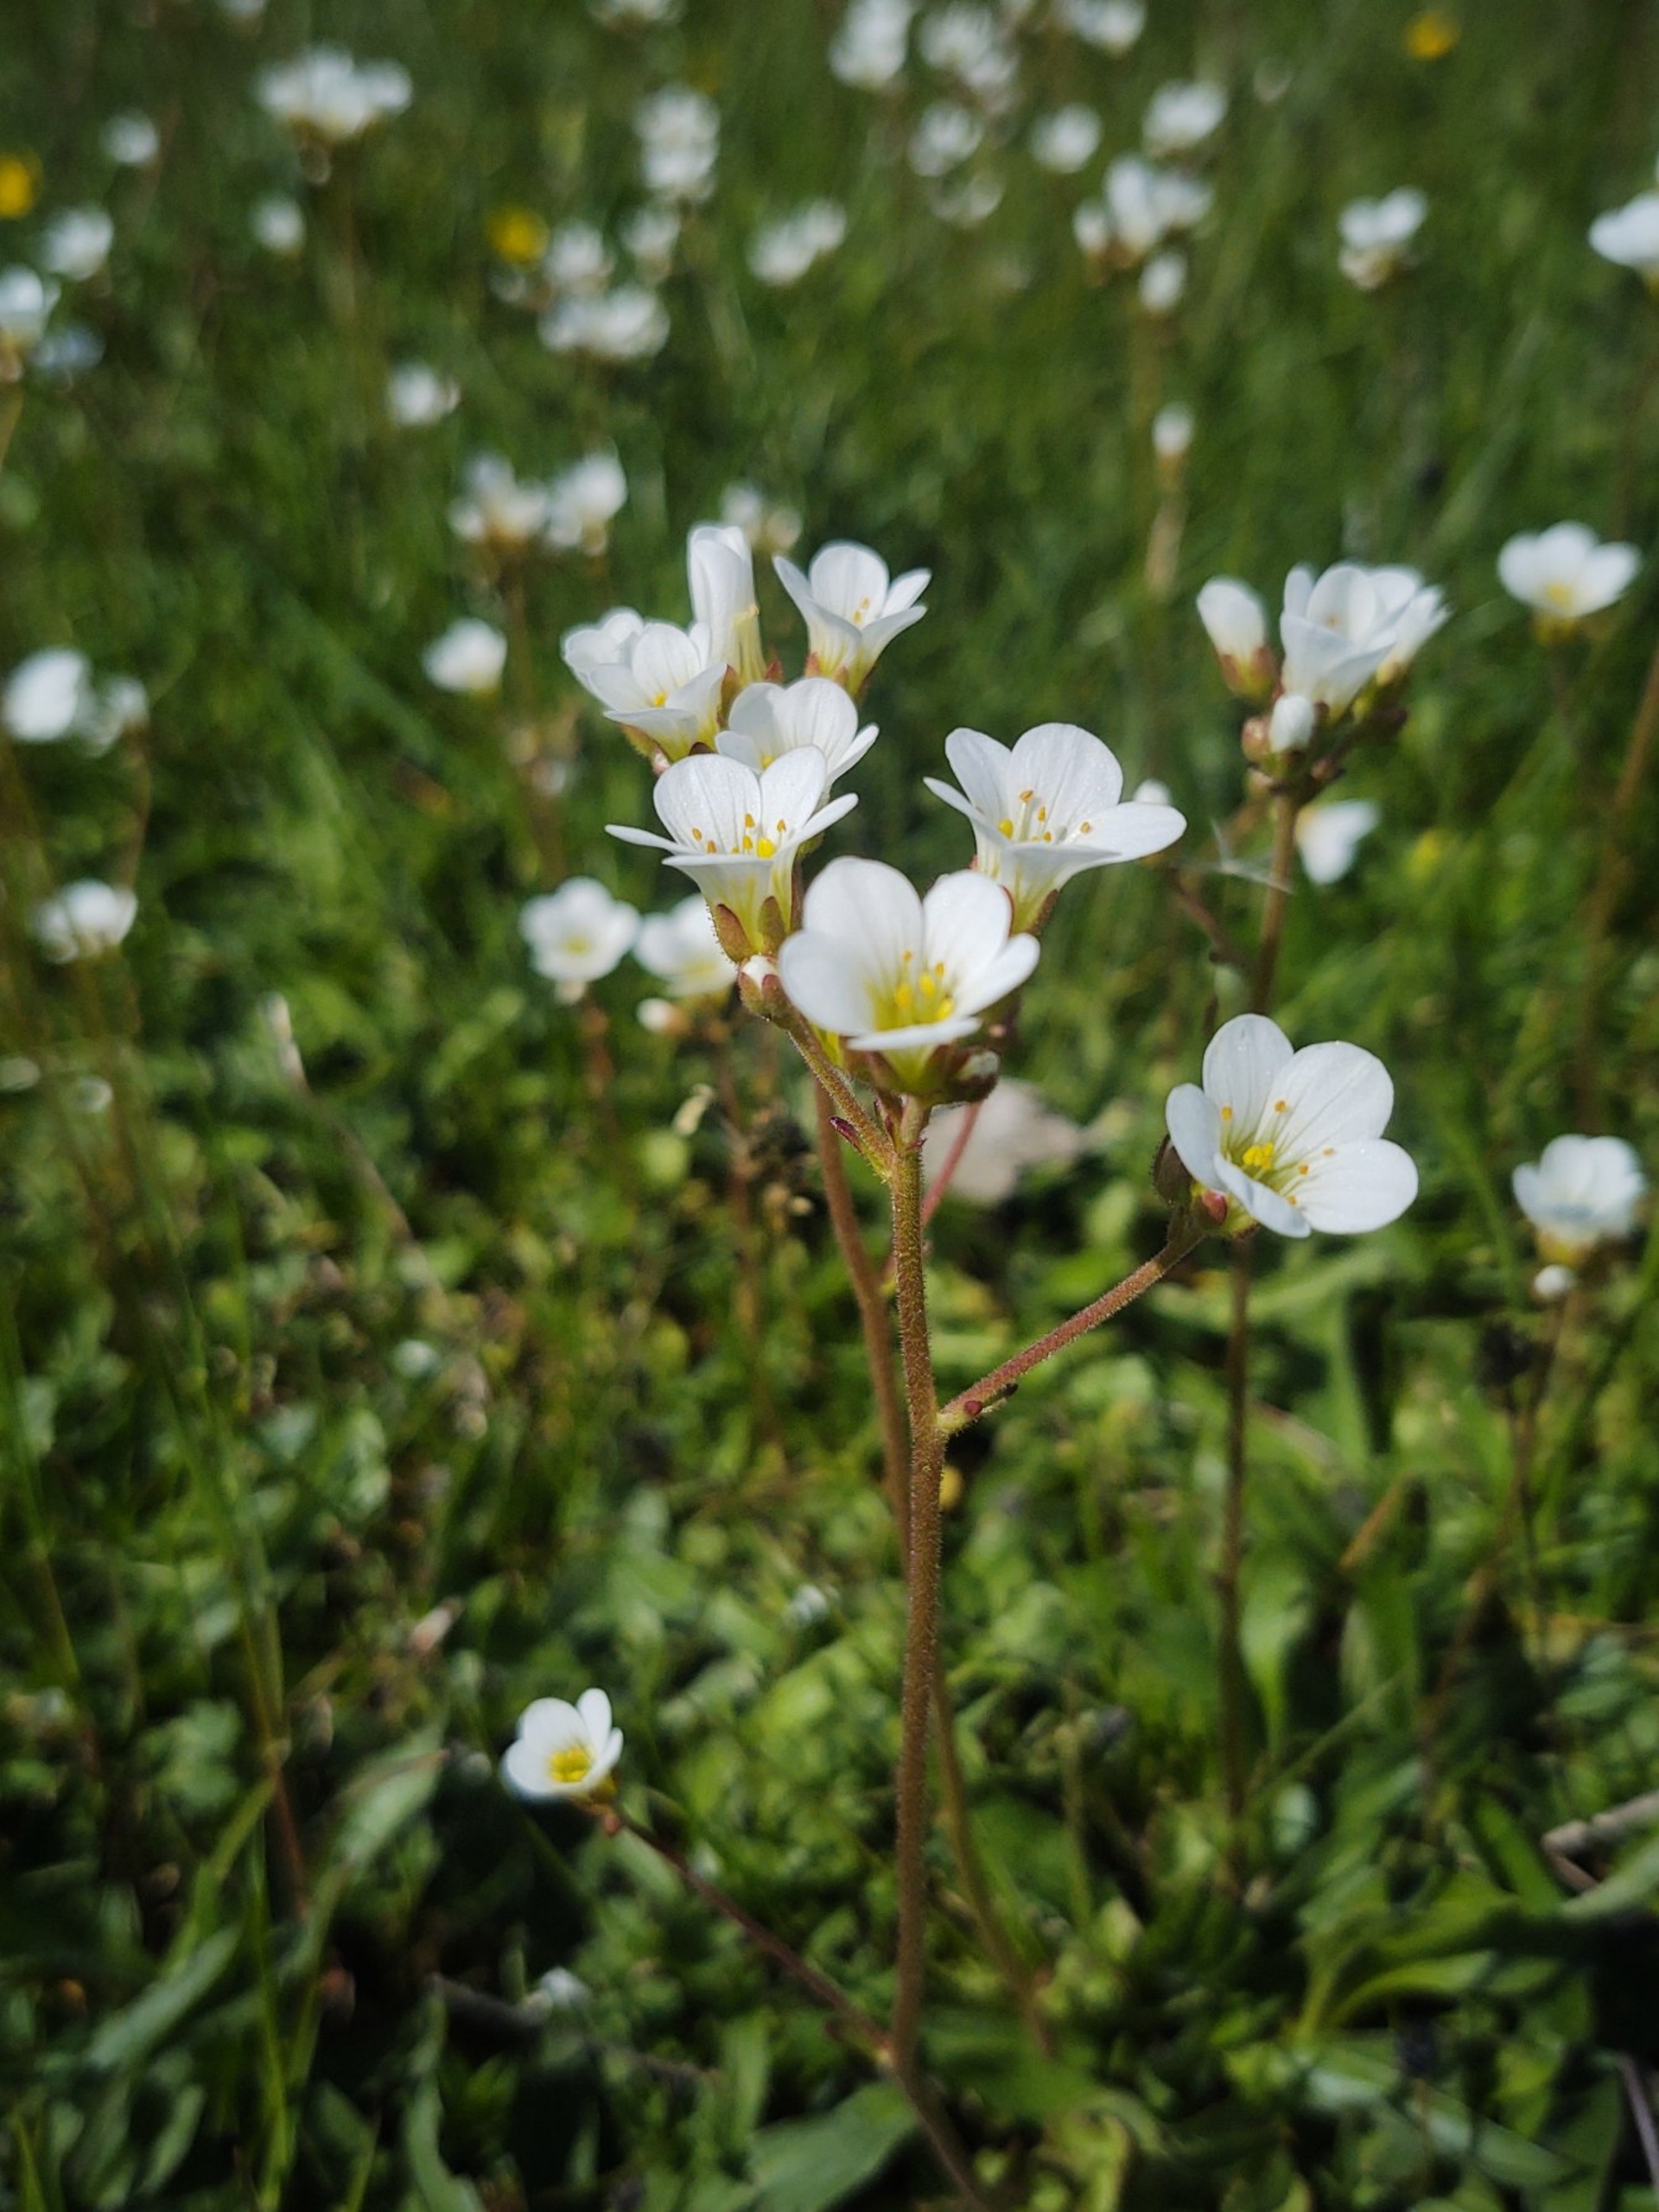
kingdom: Plantae
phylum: Tracheophyta
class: Magnoliopsida
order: Saxifragales
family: Saxifragaceae
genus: Saxifraga
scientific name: Saxifraga granulata
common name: Kornet stenbræk
